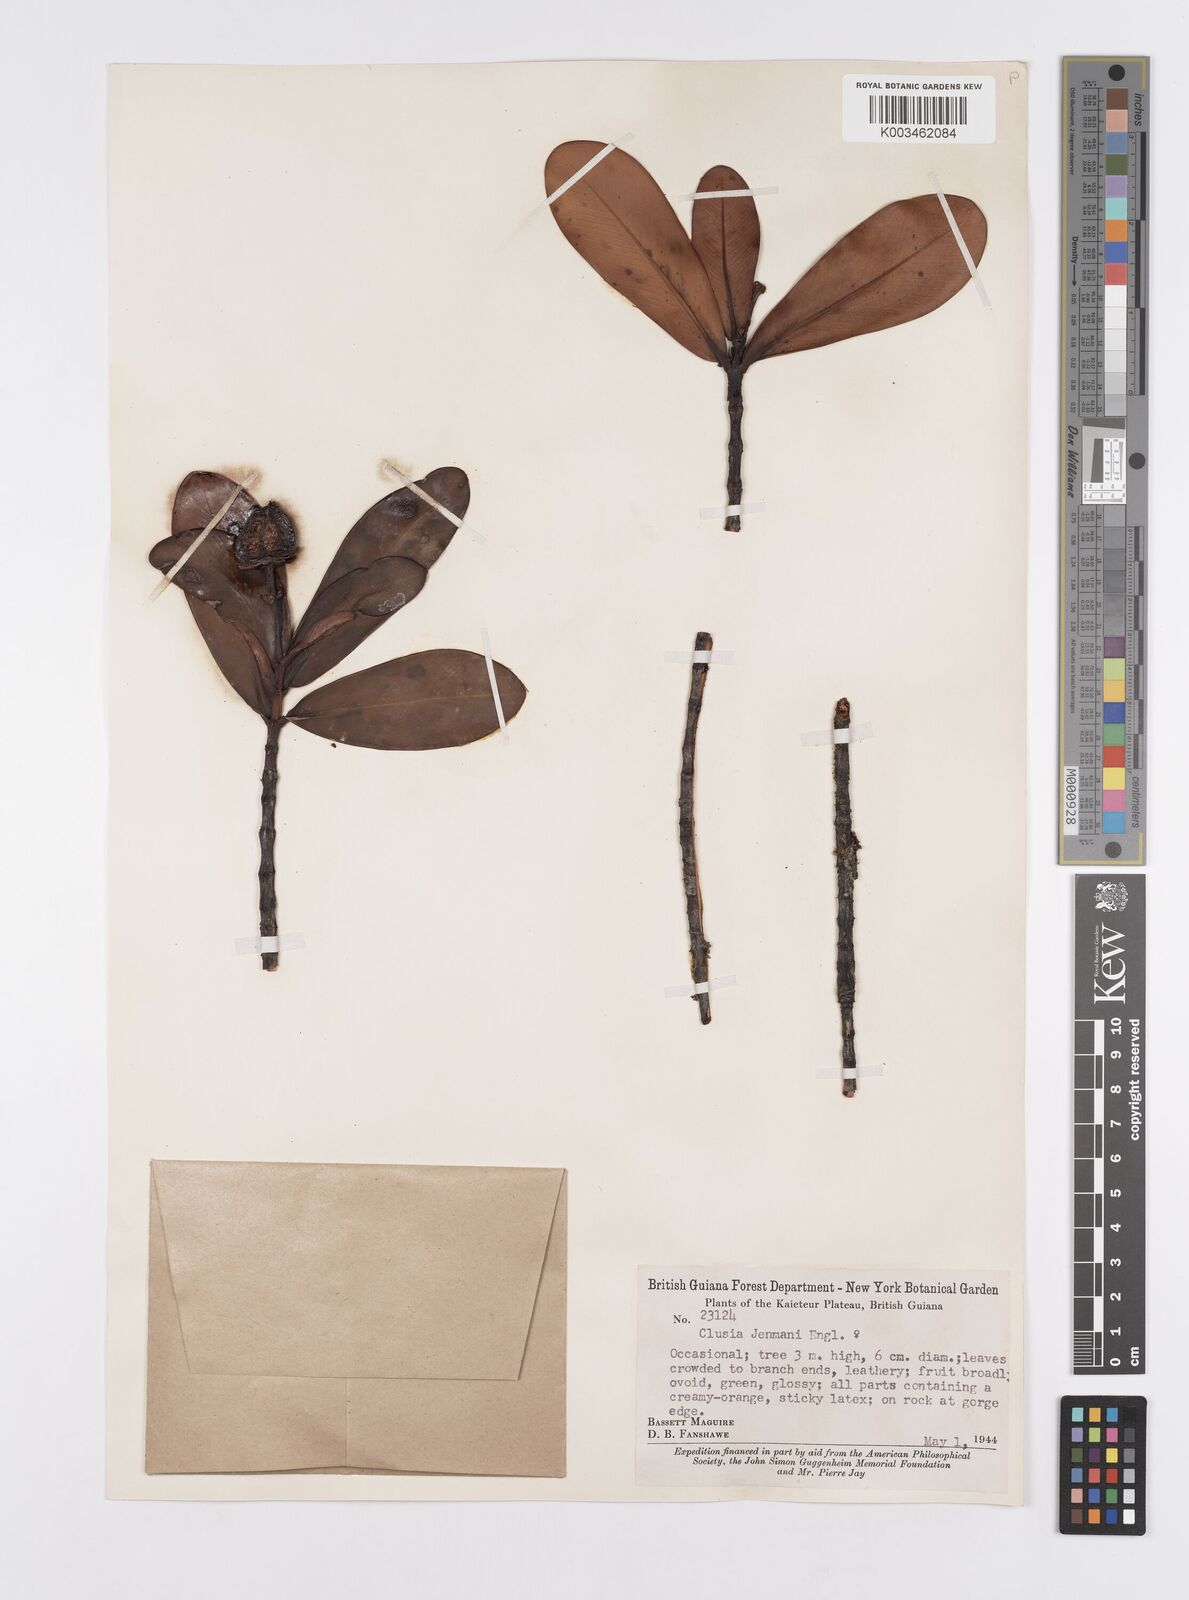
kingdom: Plantae
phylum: Tracheophyta
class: Magnoliopsida
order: Malpighiales
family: Clusiaceae
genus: Clusia
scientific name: Clusia myriandra
